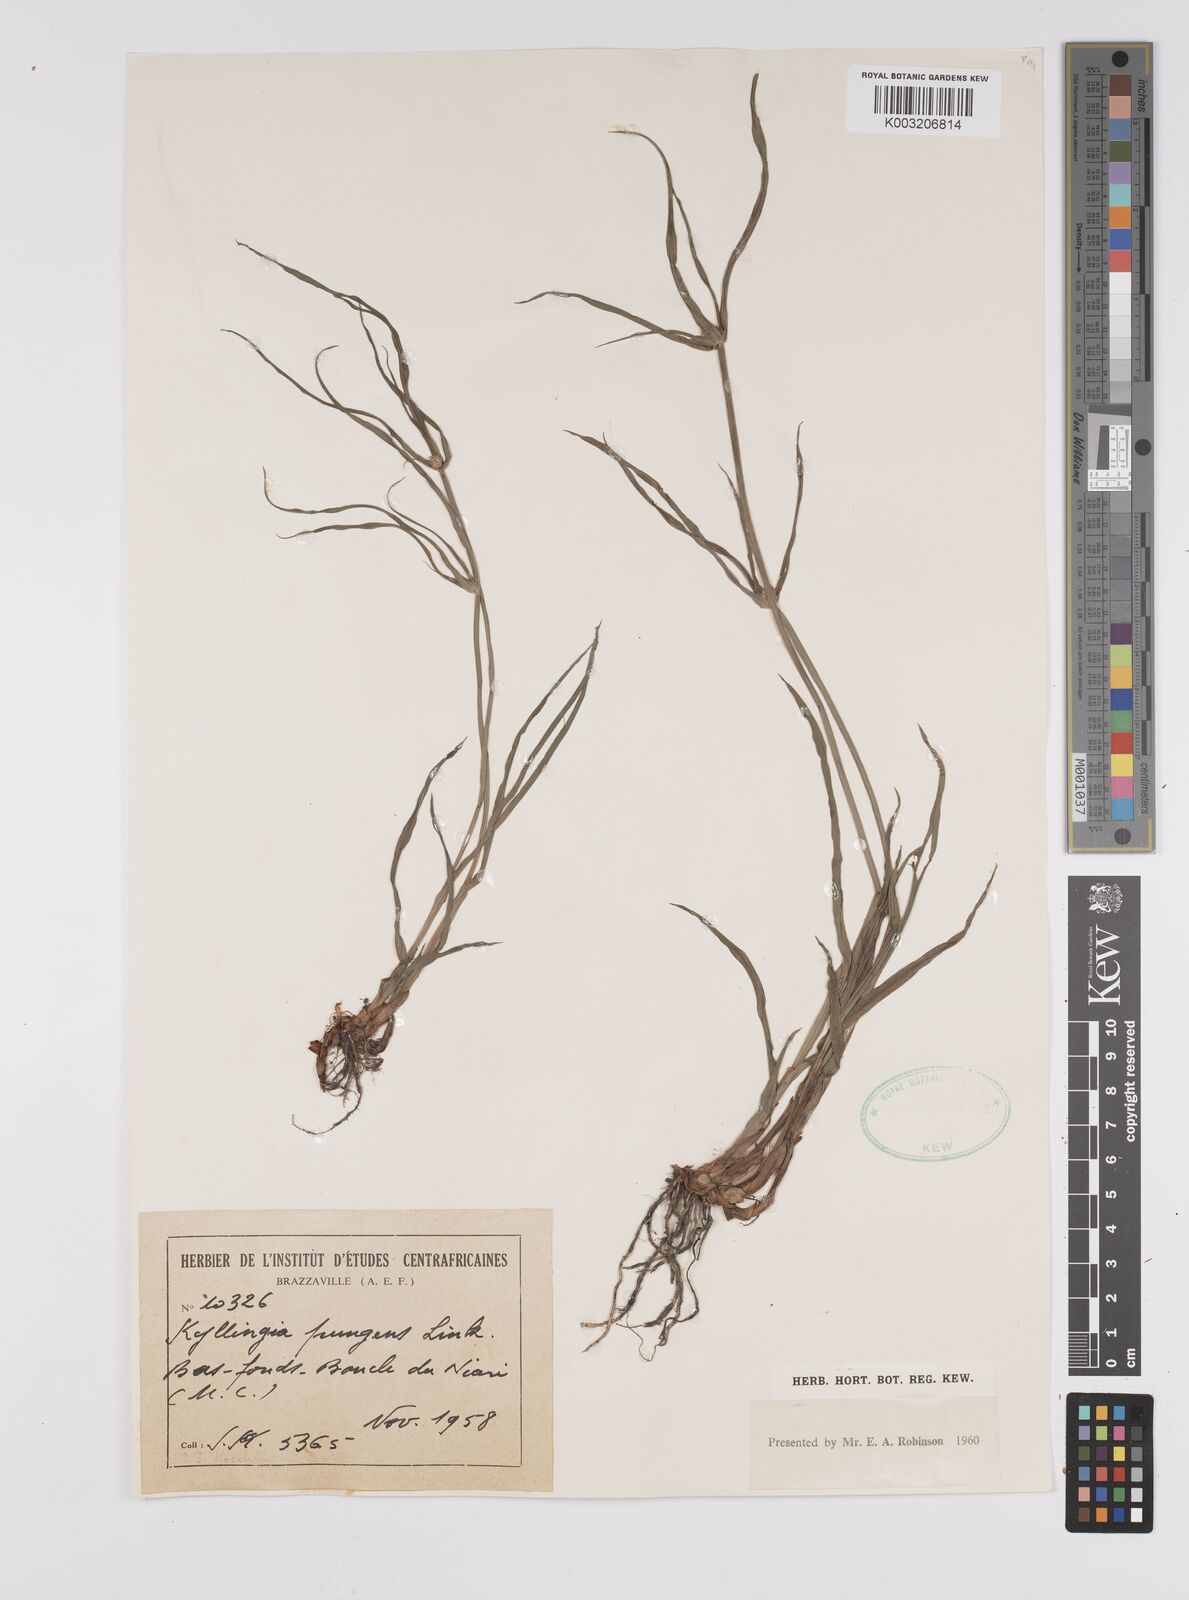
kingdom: Plantae
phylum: Tracheophyta
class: Liliopsida
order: Poales
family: Cyperaceae
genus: Cyperus
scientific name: Cyperus
